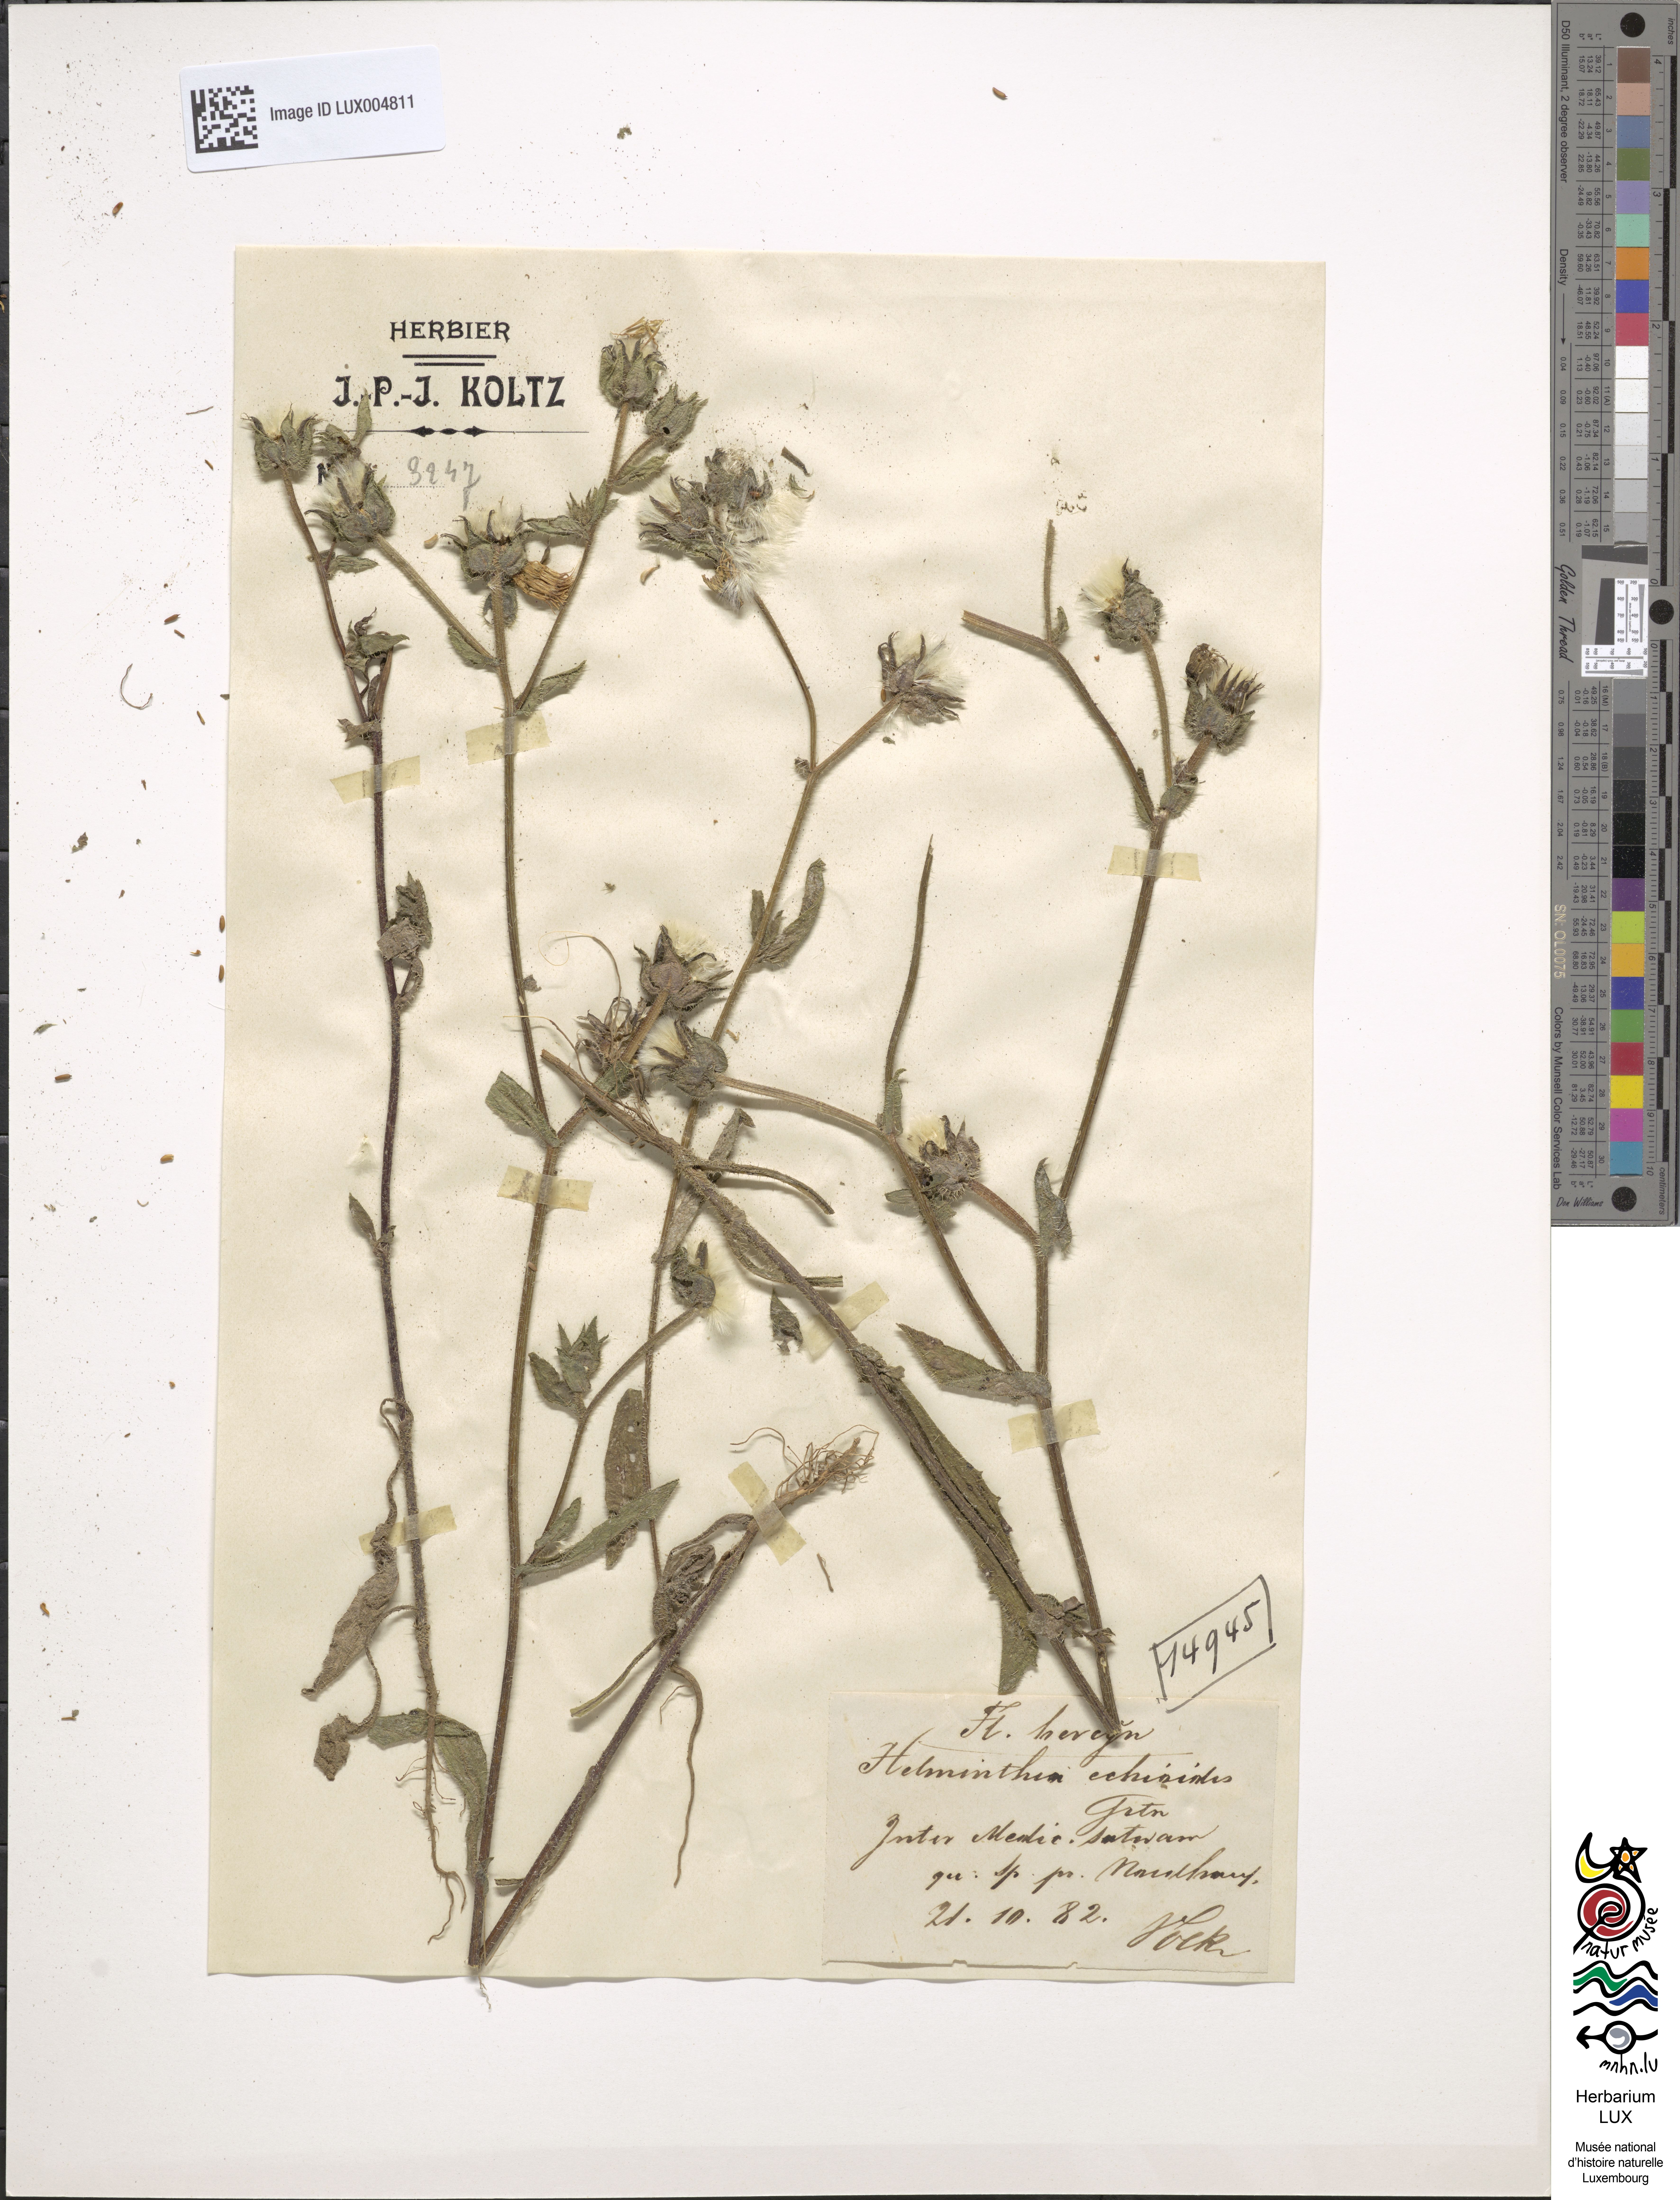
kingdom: Plantae
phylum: Tracheophyta
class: Magnoliopsida
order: Asterales
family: Asteraceae
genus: Helminthotheca
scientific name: Helminthotheca echioides
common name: Ox-tongue
